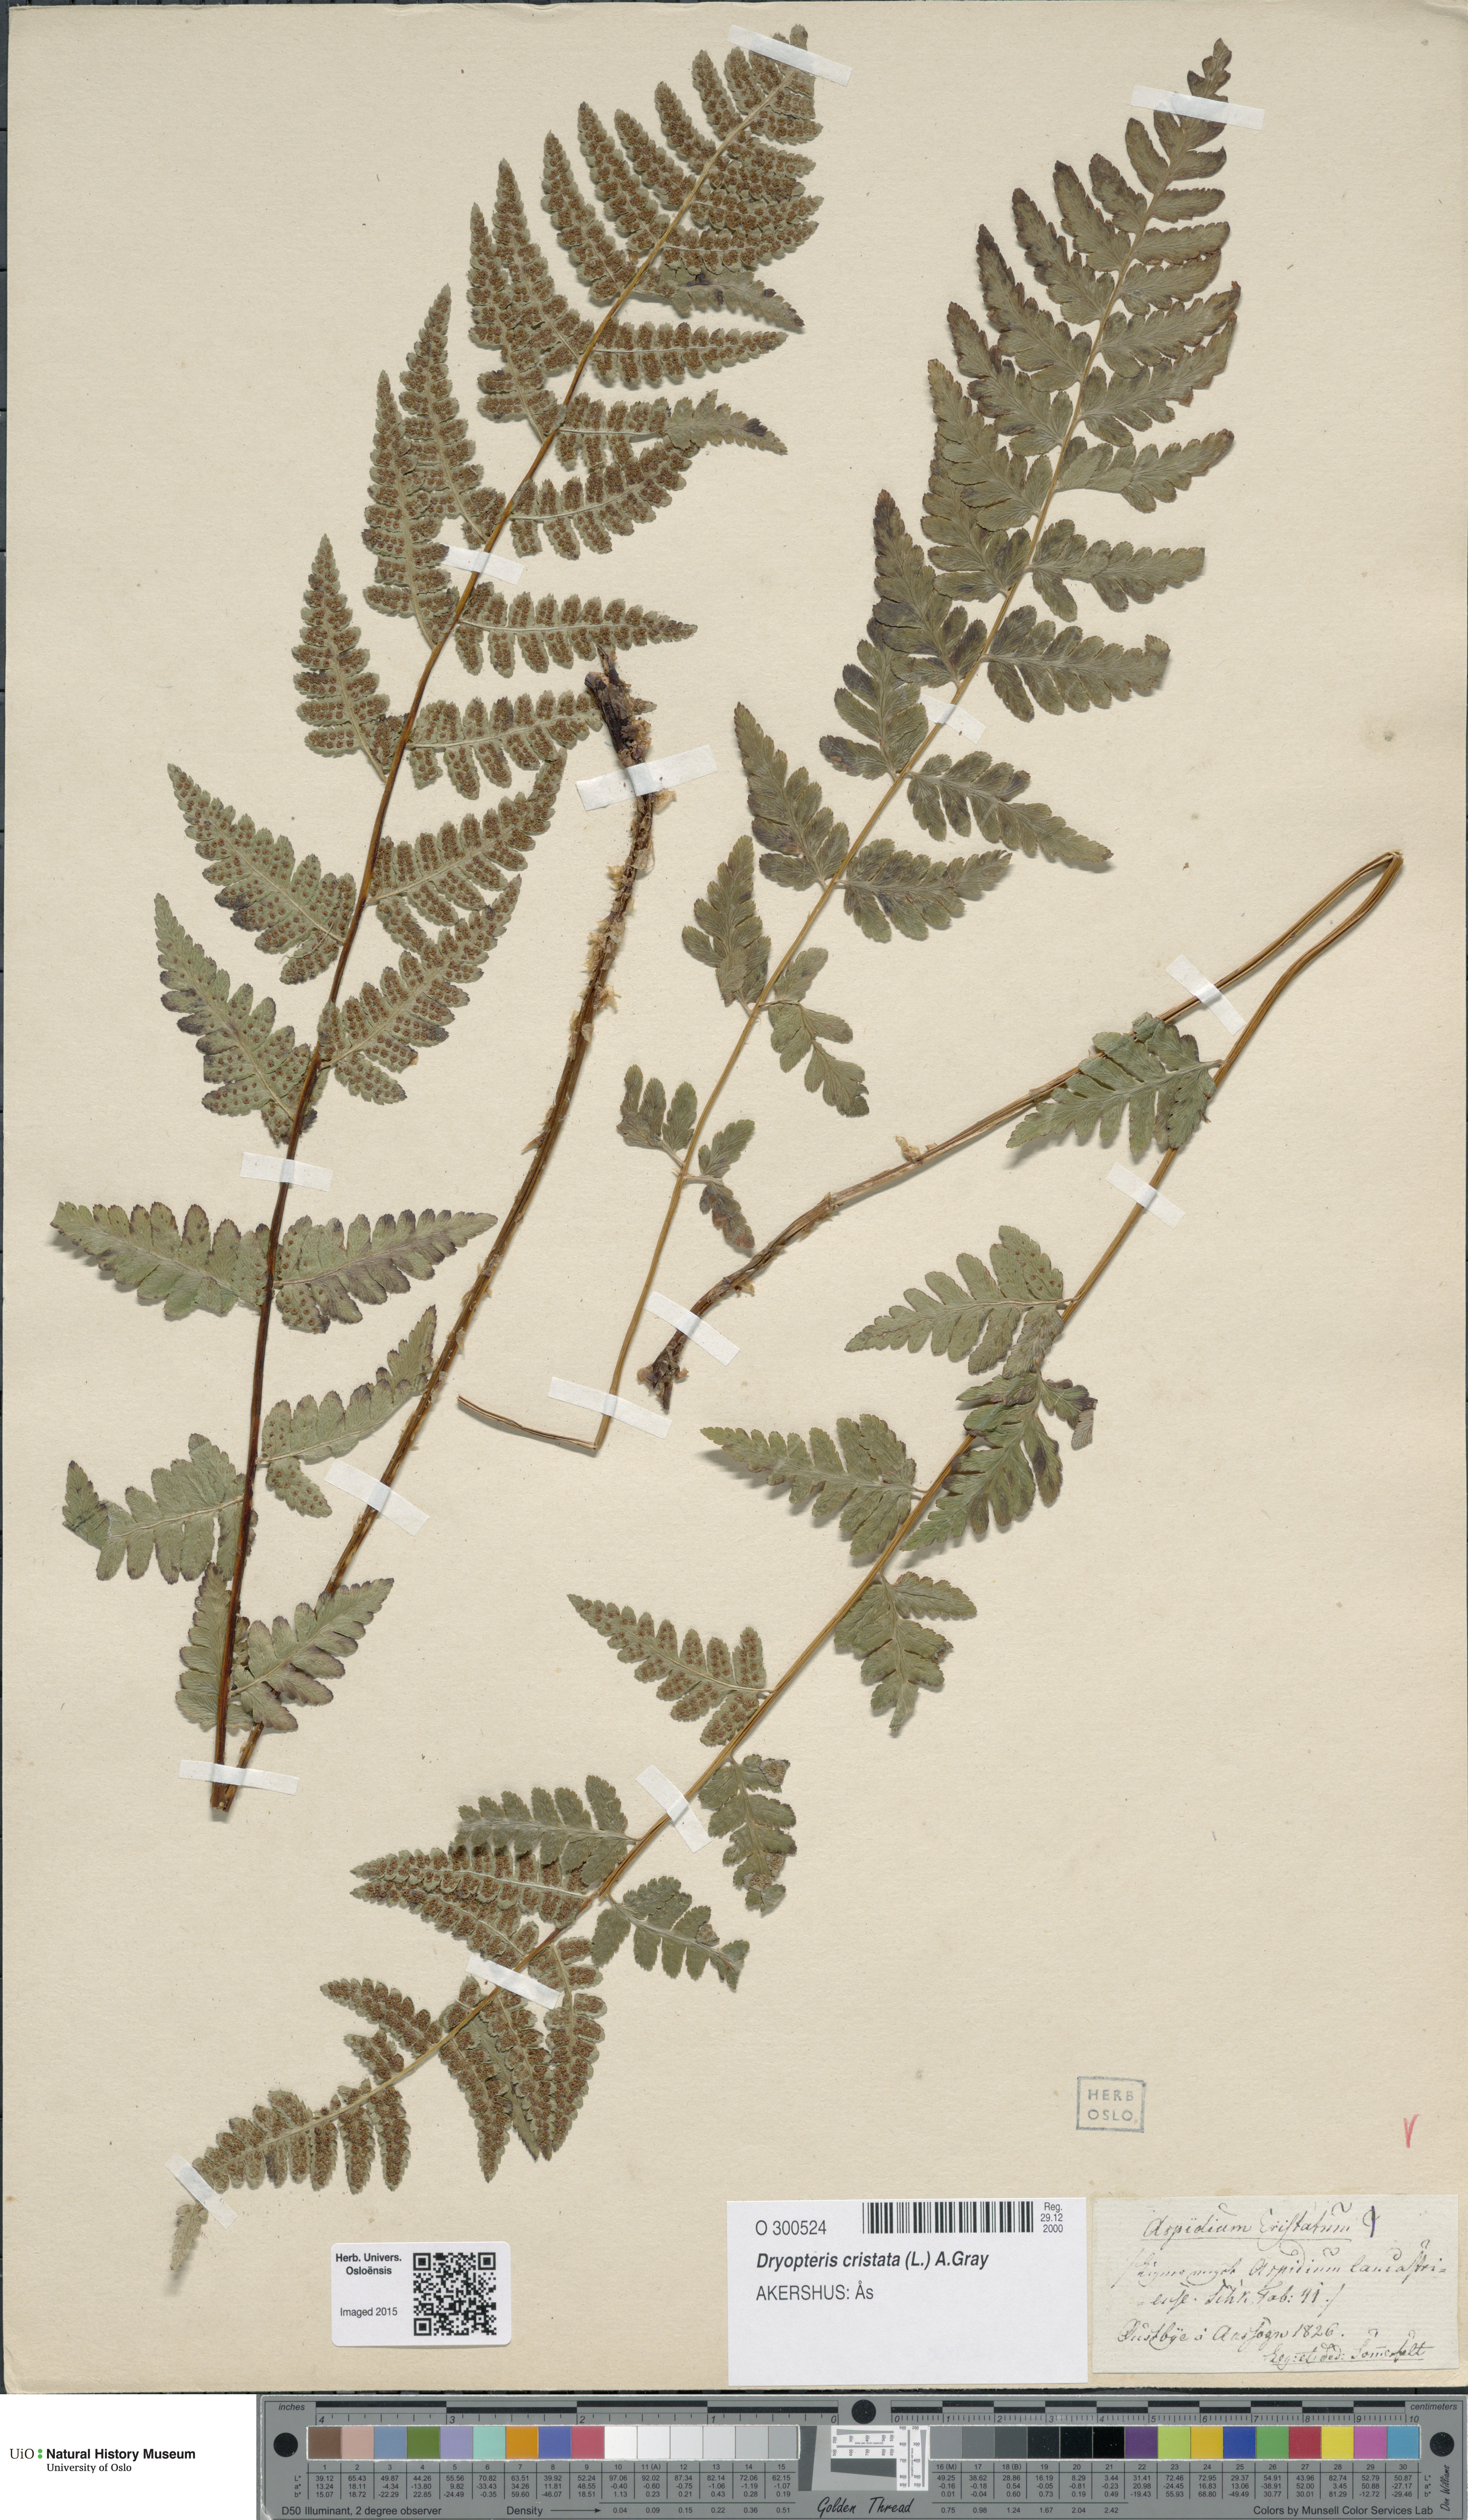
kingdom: Plantae
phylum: Tracheophyta
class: Polypodiopsida
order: Polypodiales
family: Dryopteridaceae
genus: Dryopteris
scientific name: Dryopteris cristata
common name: Crested wood fern
